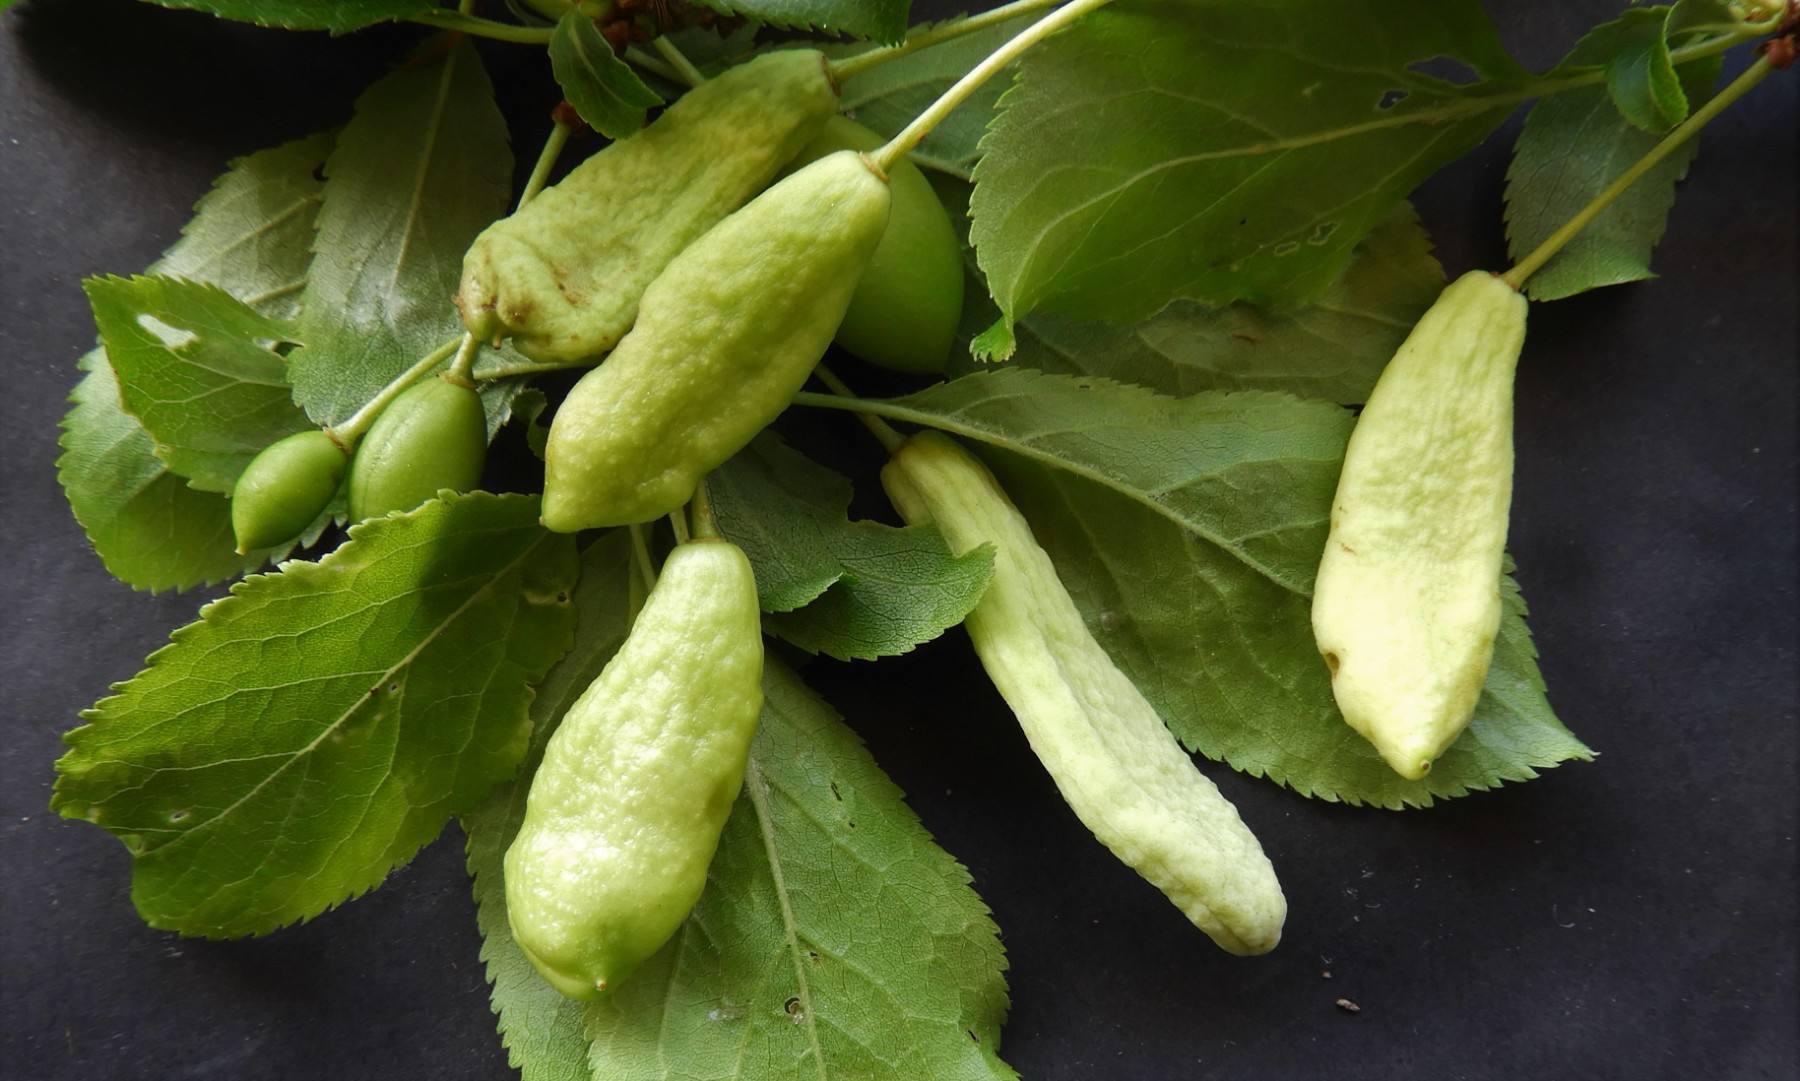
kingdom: Fungi
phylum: Ascomycota
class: Taphrinomycetes
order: Taphrinales
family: Taphrinaceae
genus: Taphrina
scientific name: Taphrina pruni
